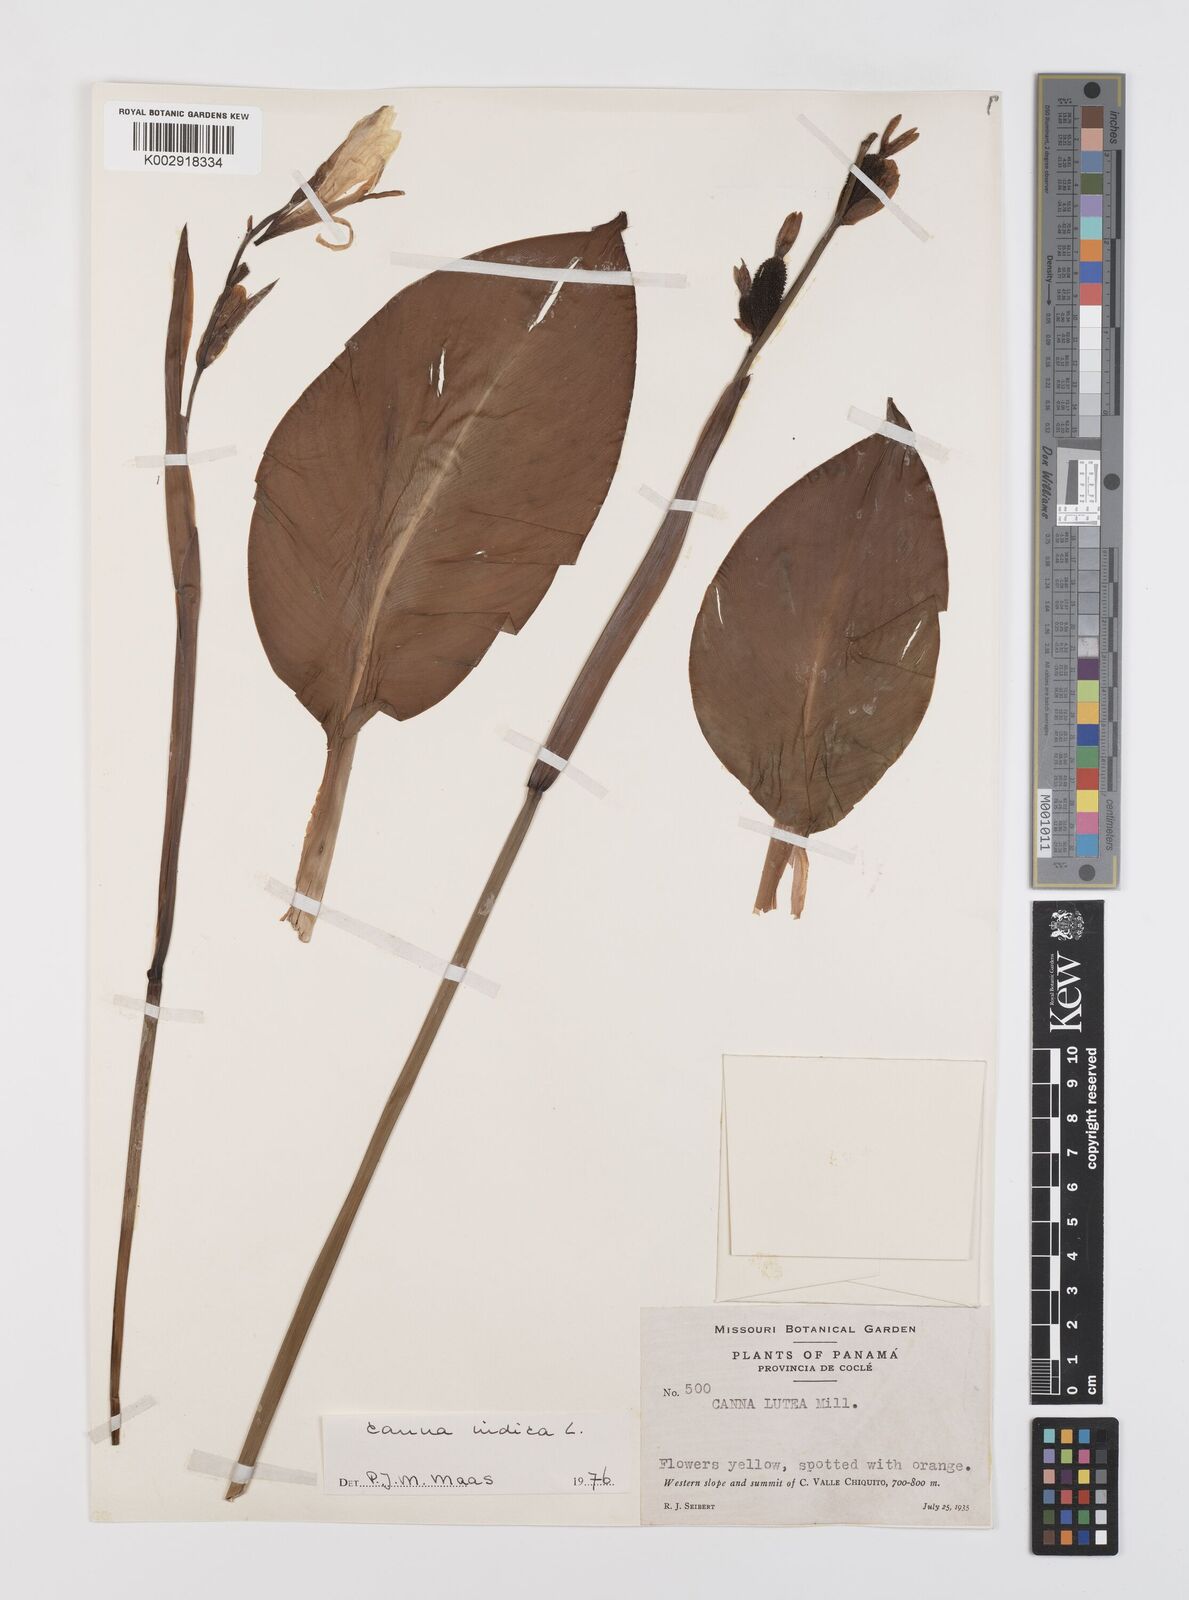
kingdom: Plantae
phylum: Tracheophyta
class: Liliopsida
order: Zingiberales
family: Cannaceae
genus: Canna
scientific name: Canna indica
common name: Indian shot
